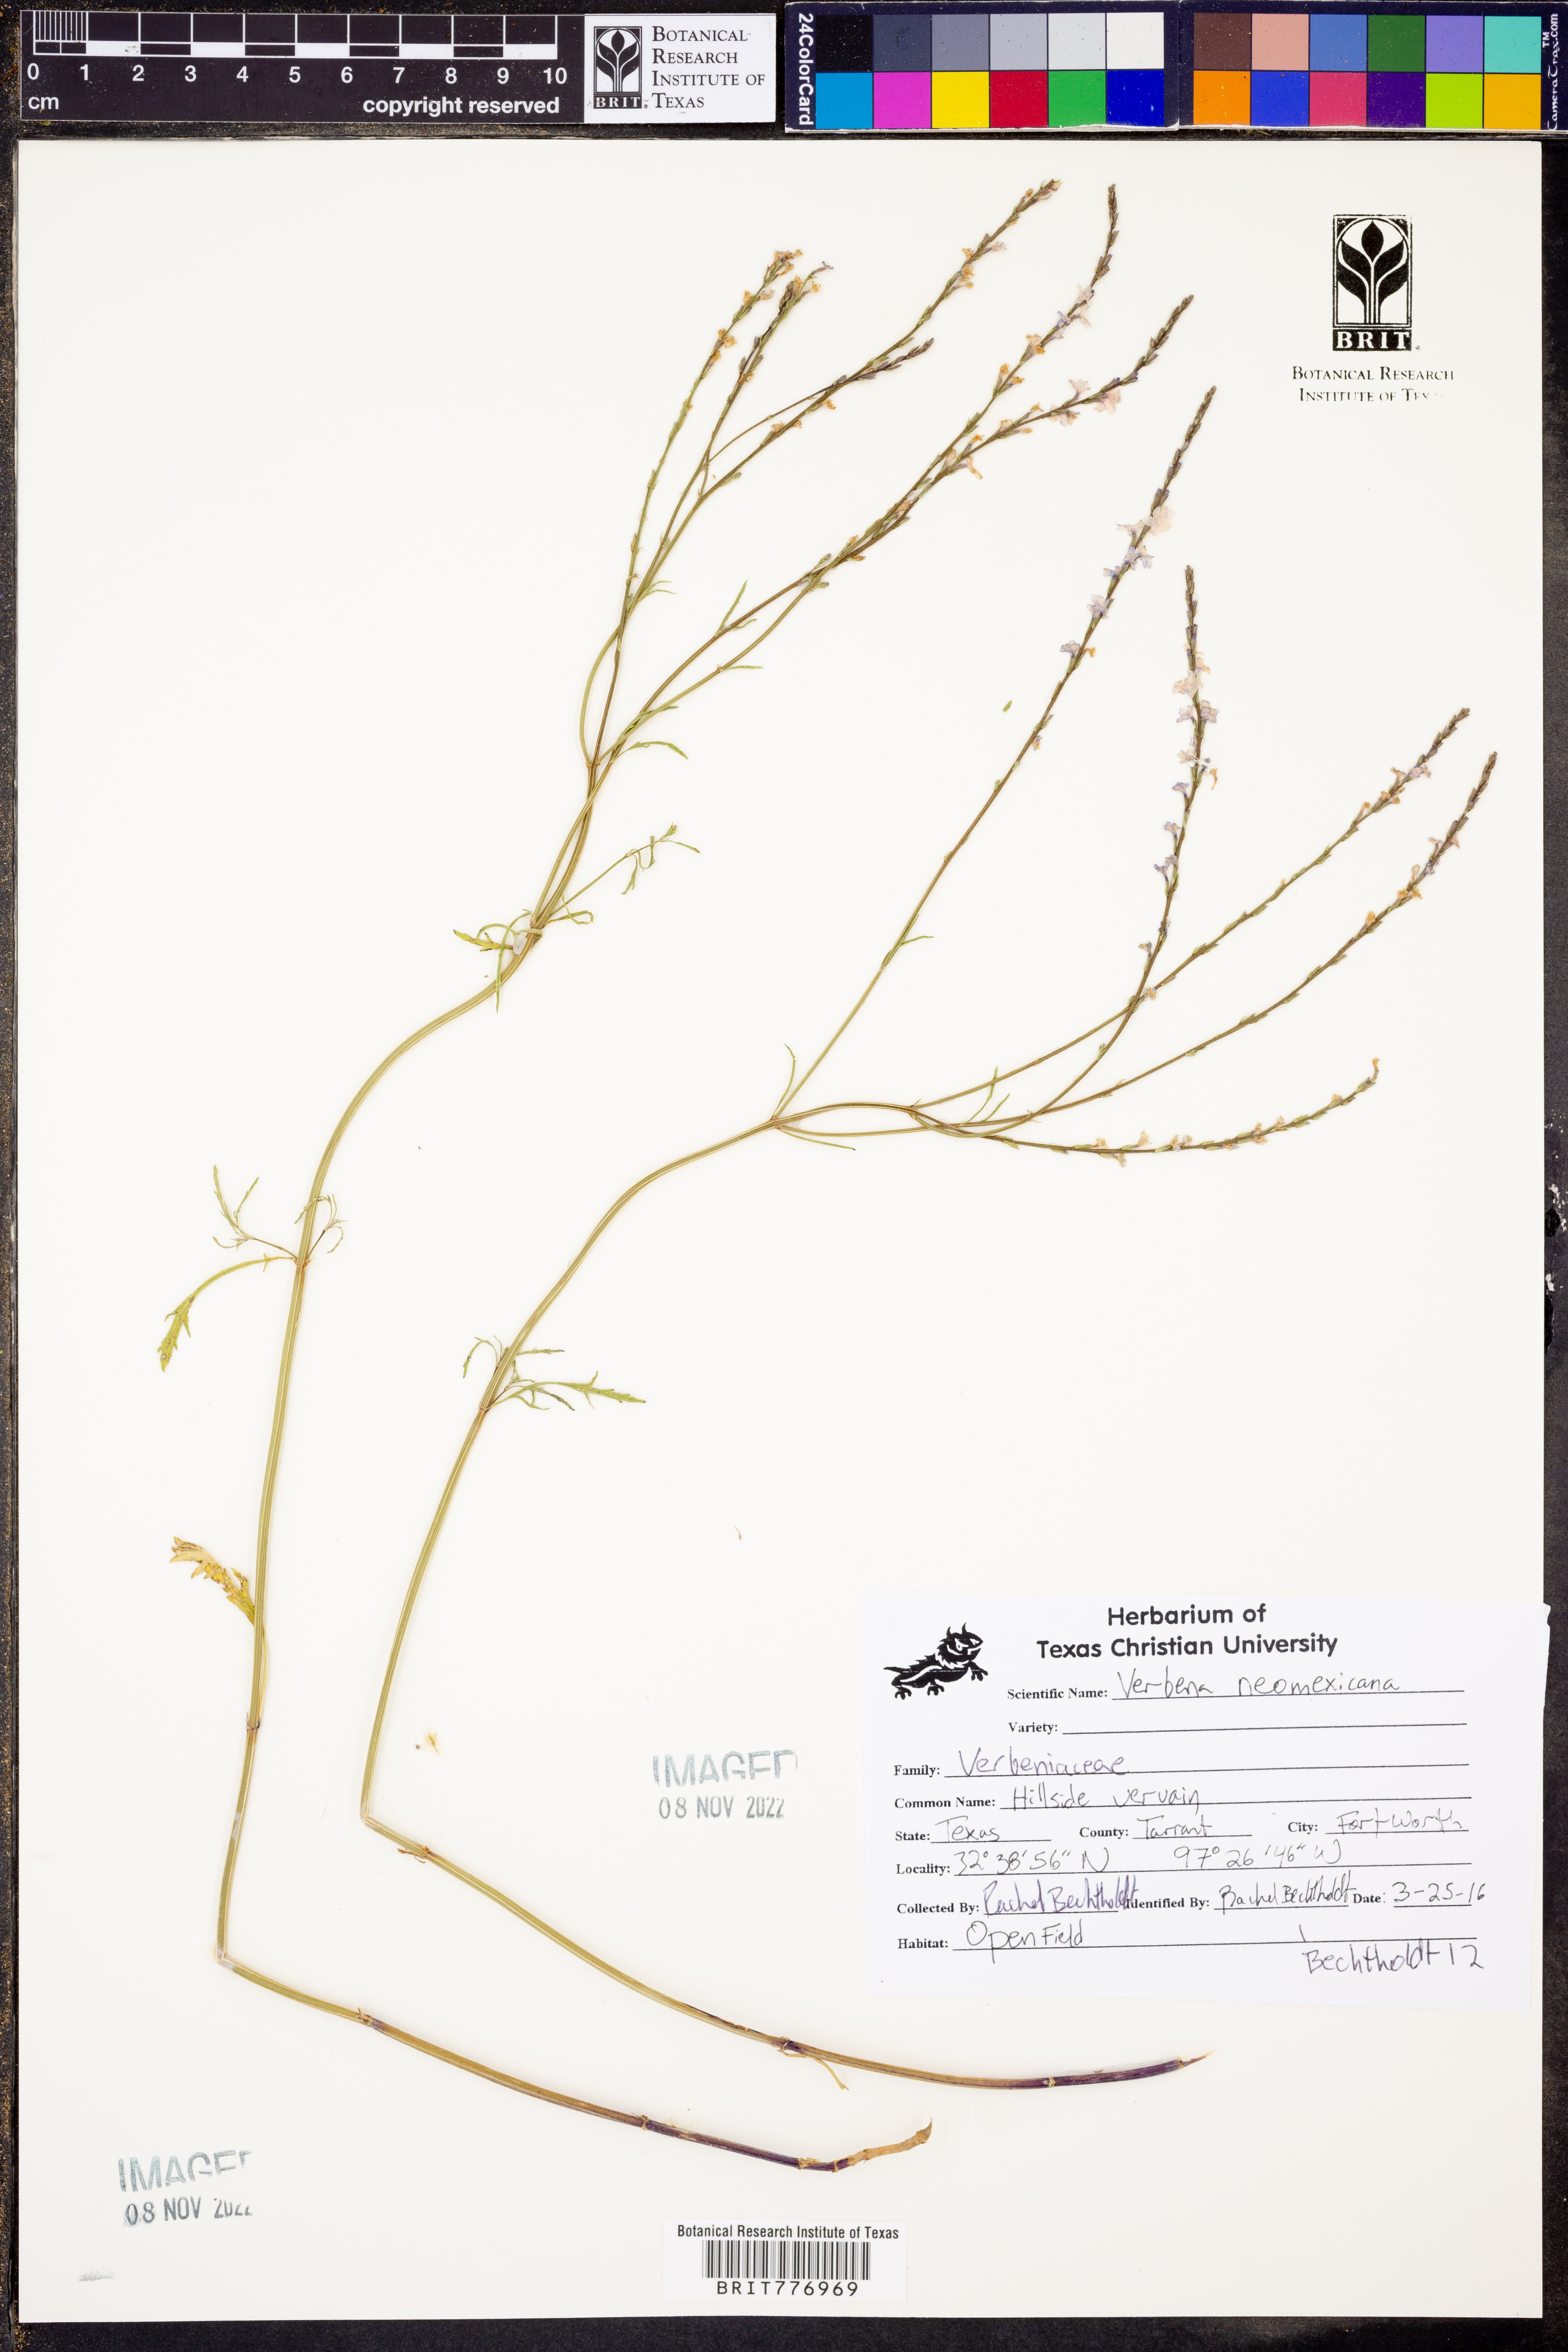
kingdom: Plantae
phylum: Tracheophyta
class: Magnoliopsida
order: Lamiales
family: Verbenaceae
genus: Verbena
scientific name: Verbena neomexicana
